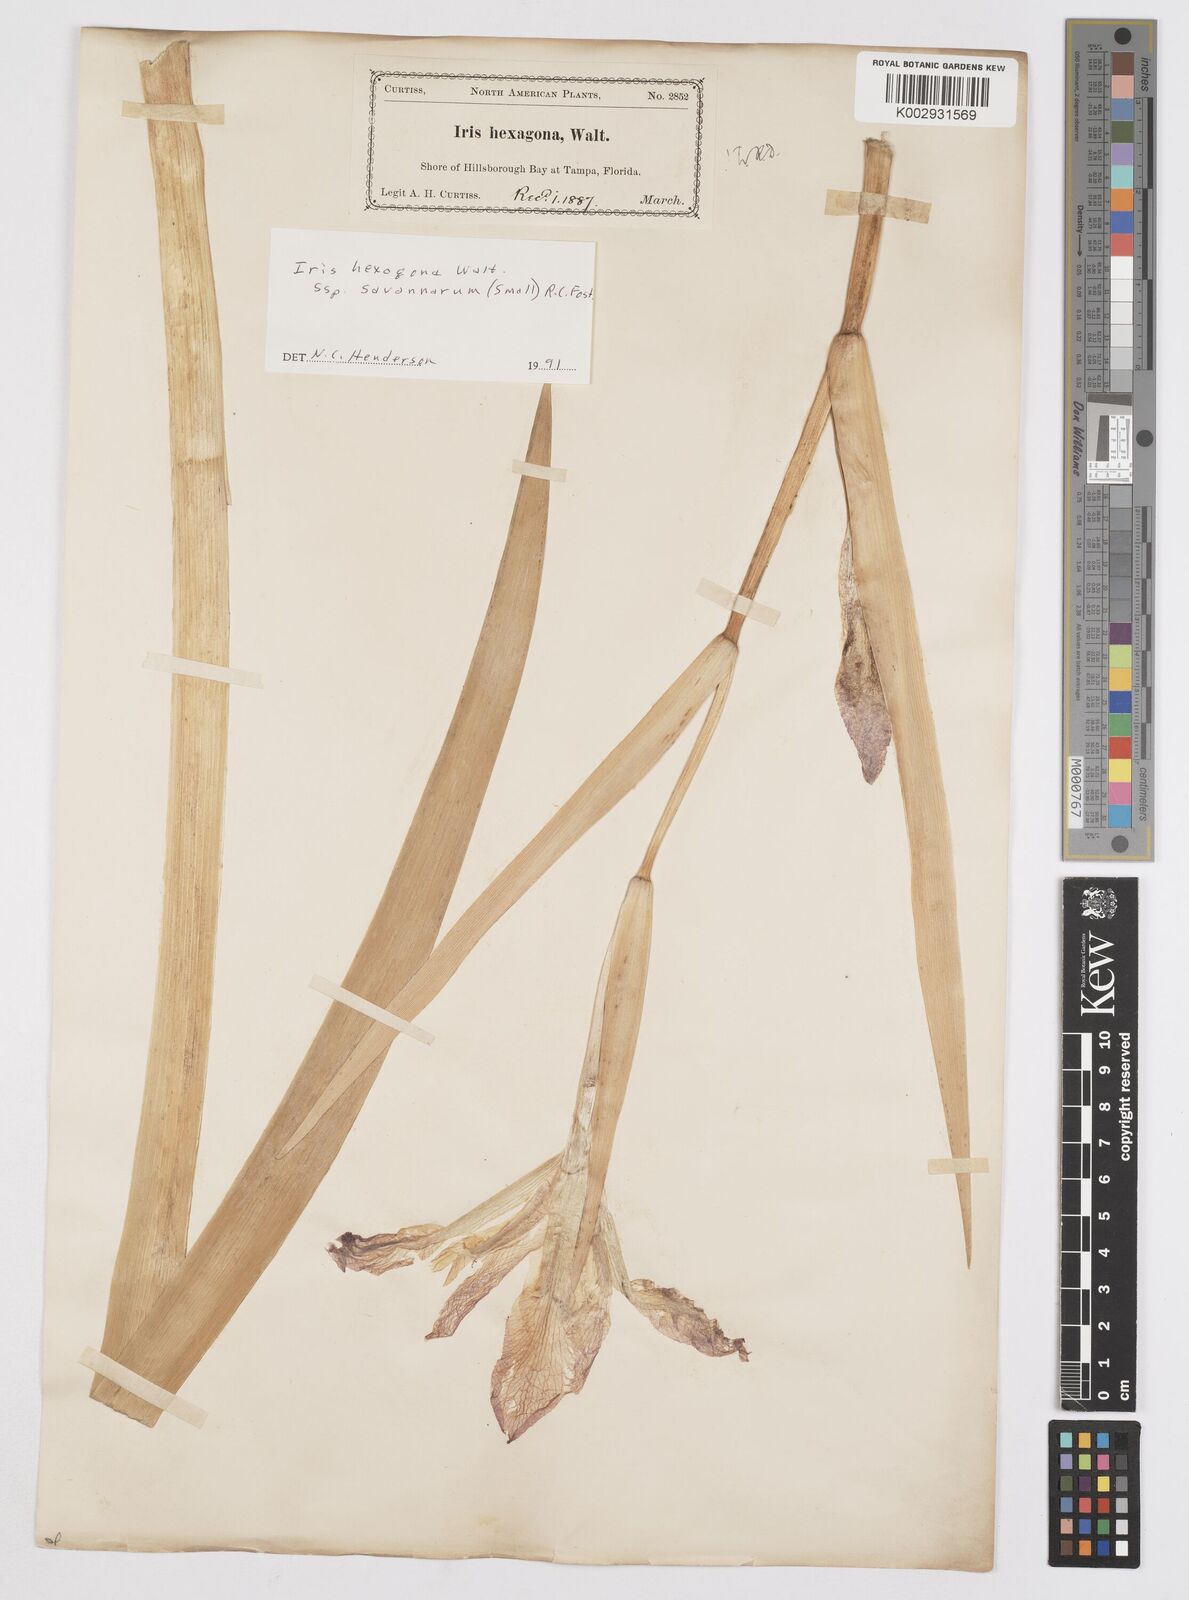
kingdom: Plantae
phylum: Tracheophyta
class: Liliopsida
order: Asparagales
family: Iridaceae
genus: Iris
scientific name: Iris hexagona
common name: Carolina iris
